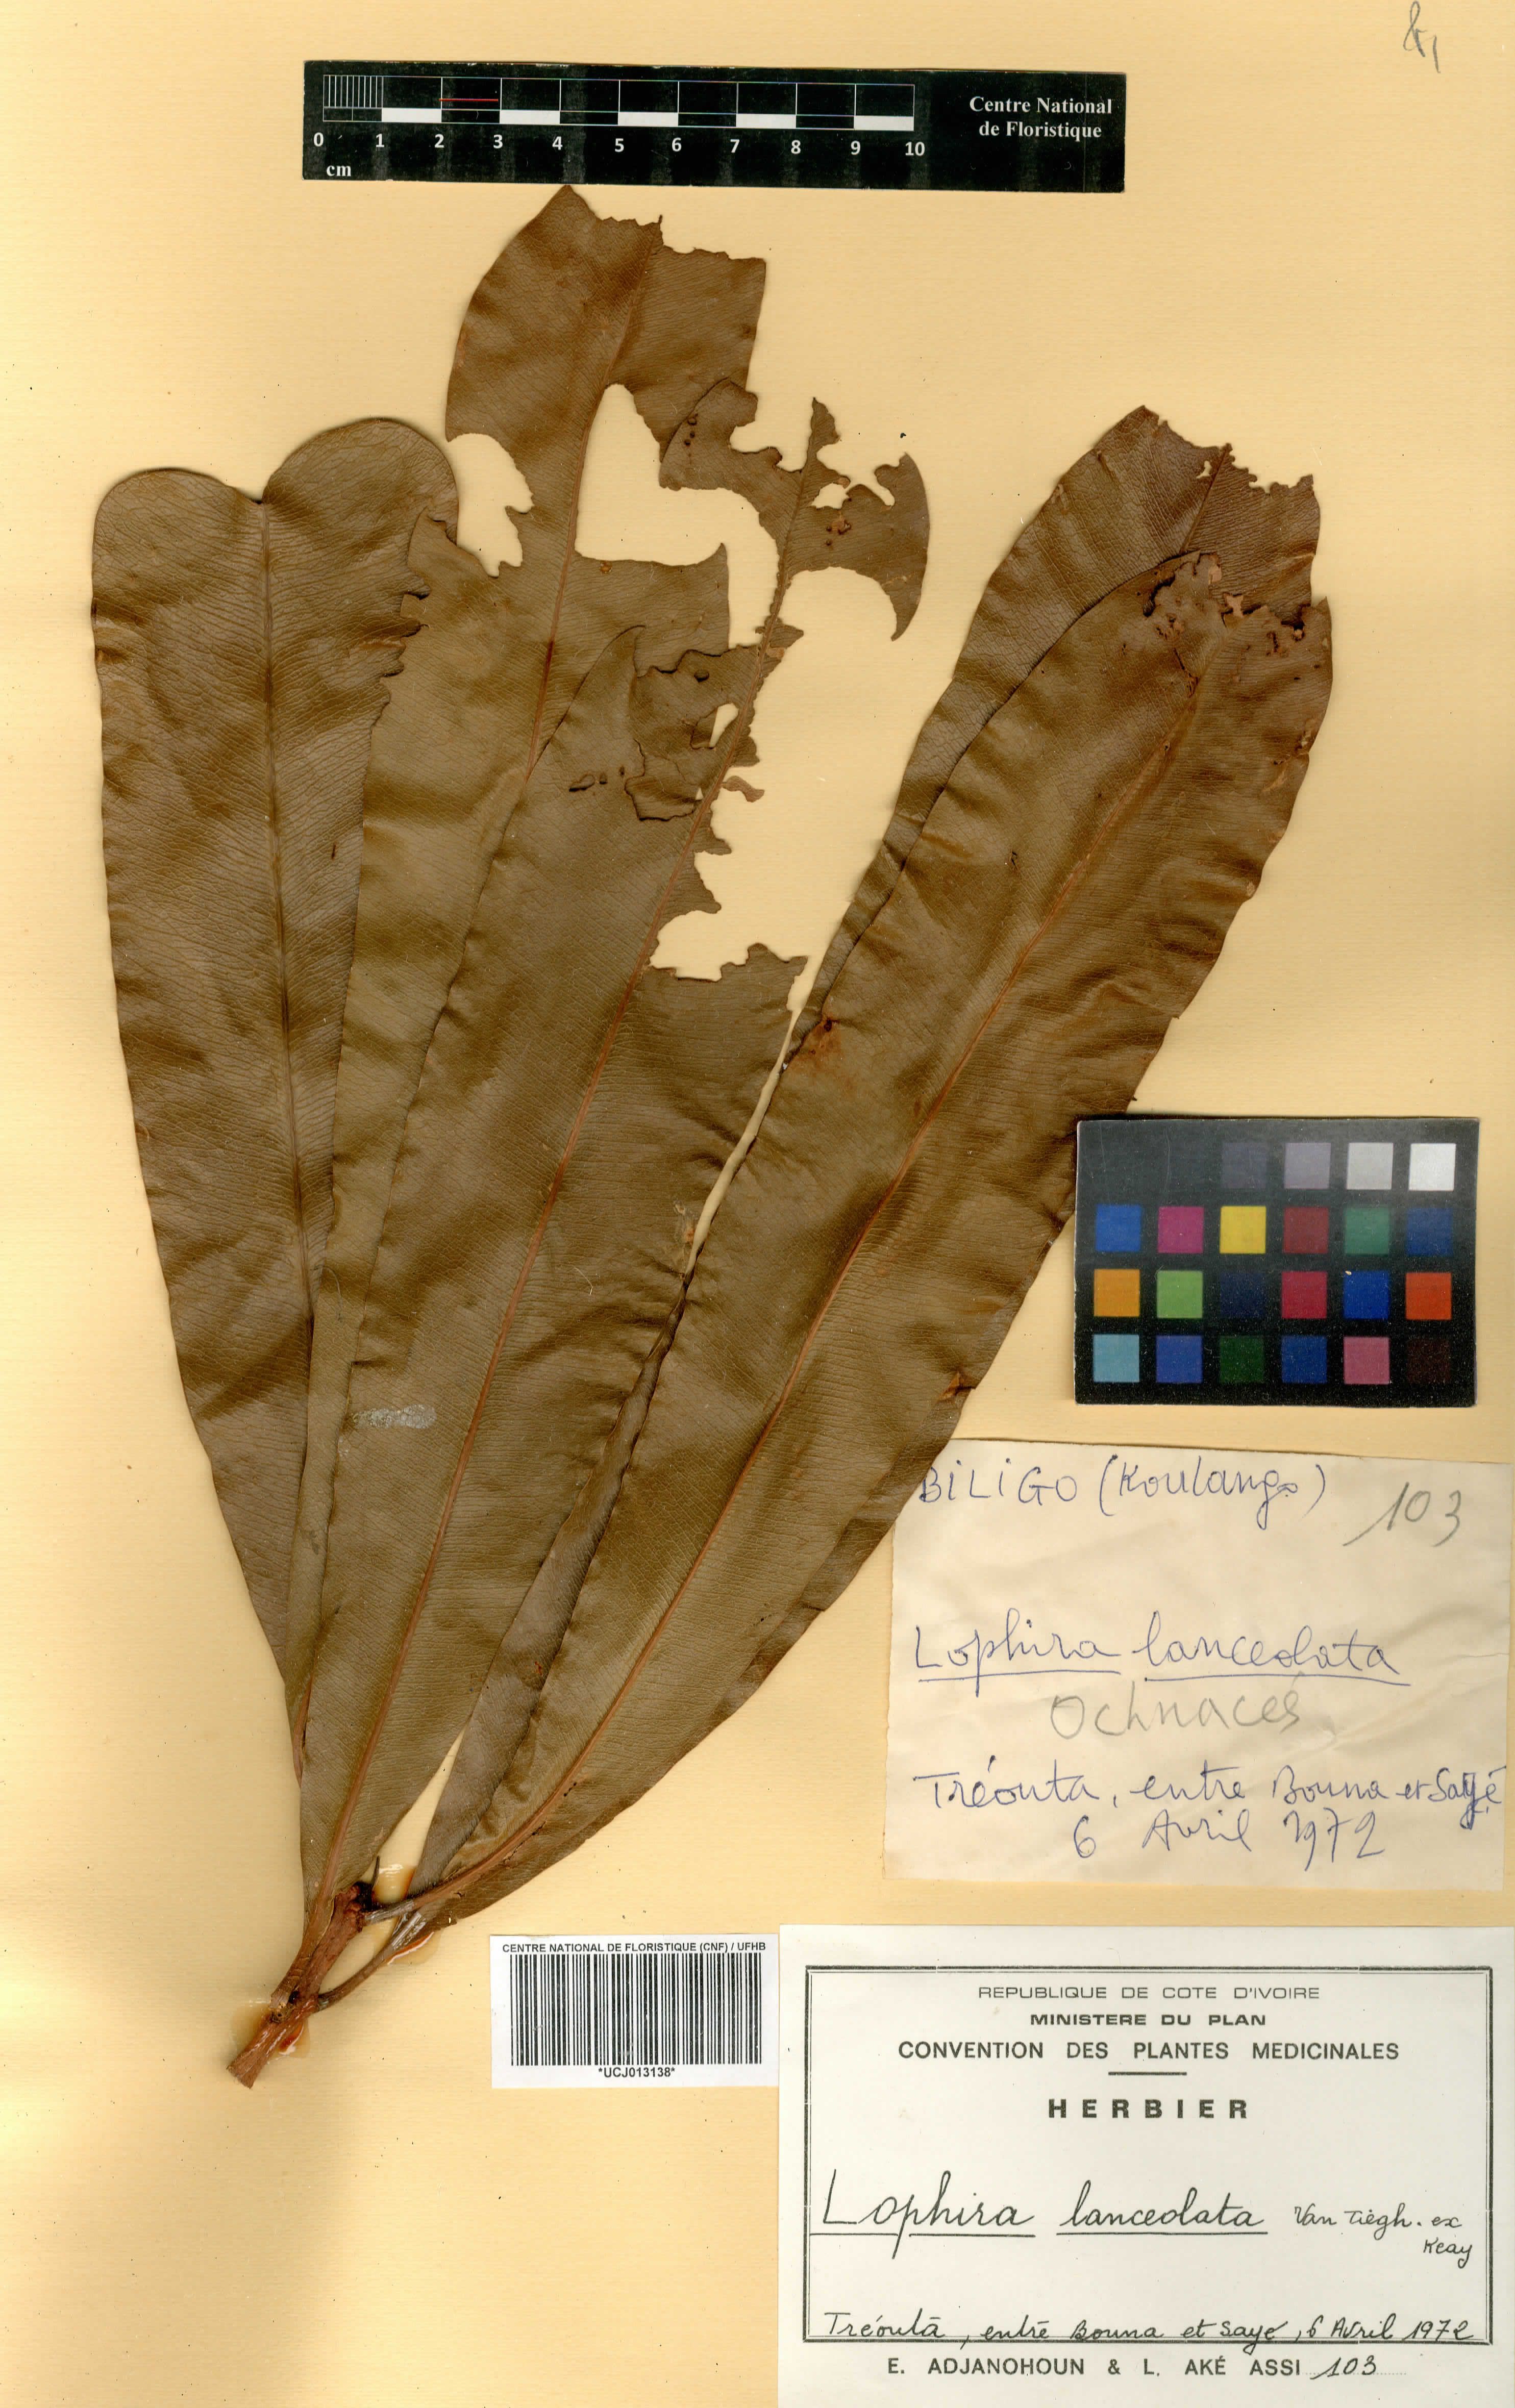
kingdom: Plantae
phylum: Tracheophyta
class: Magnoliopsida
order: Malpighiales
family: Ochnaceae
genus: Lophira
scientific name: Lophira lanceolata
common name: Dwarf red ironwood
